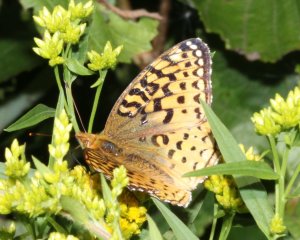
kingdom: Animalia
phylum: Arthropoda
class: Insecta
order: Lepidoptera
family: Nymphalidae
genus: Speyeria
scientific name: Speyeria aphrodite
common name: Aphrodite Fritillary
